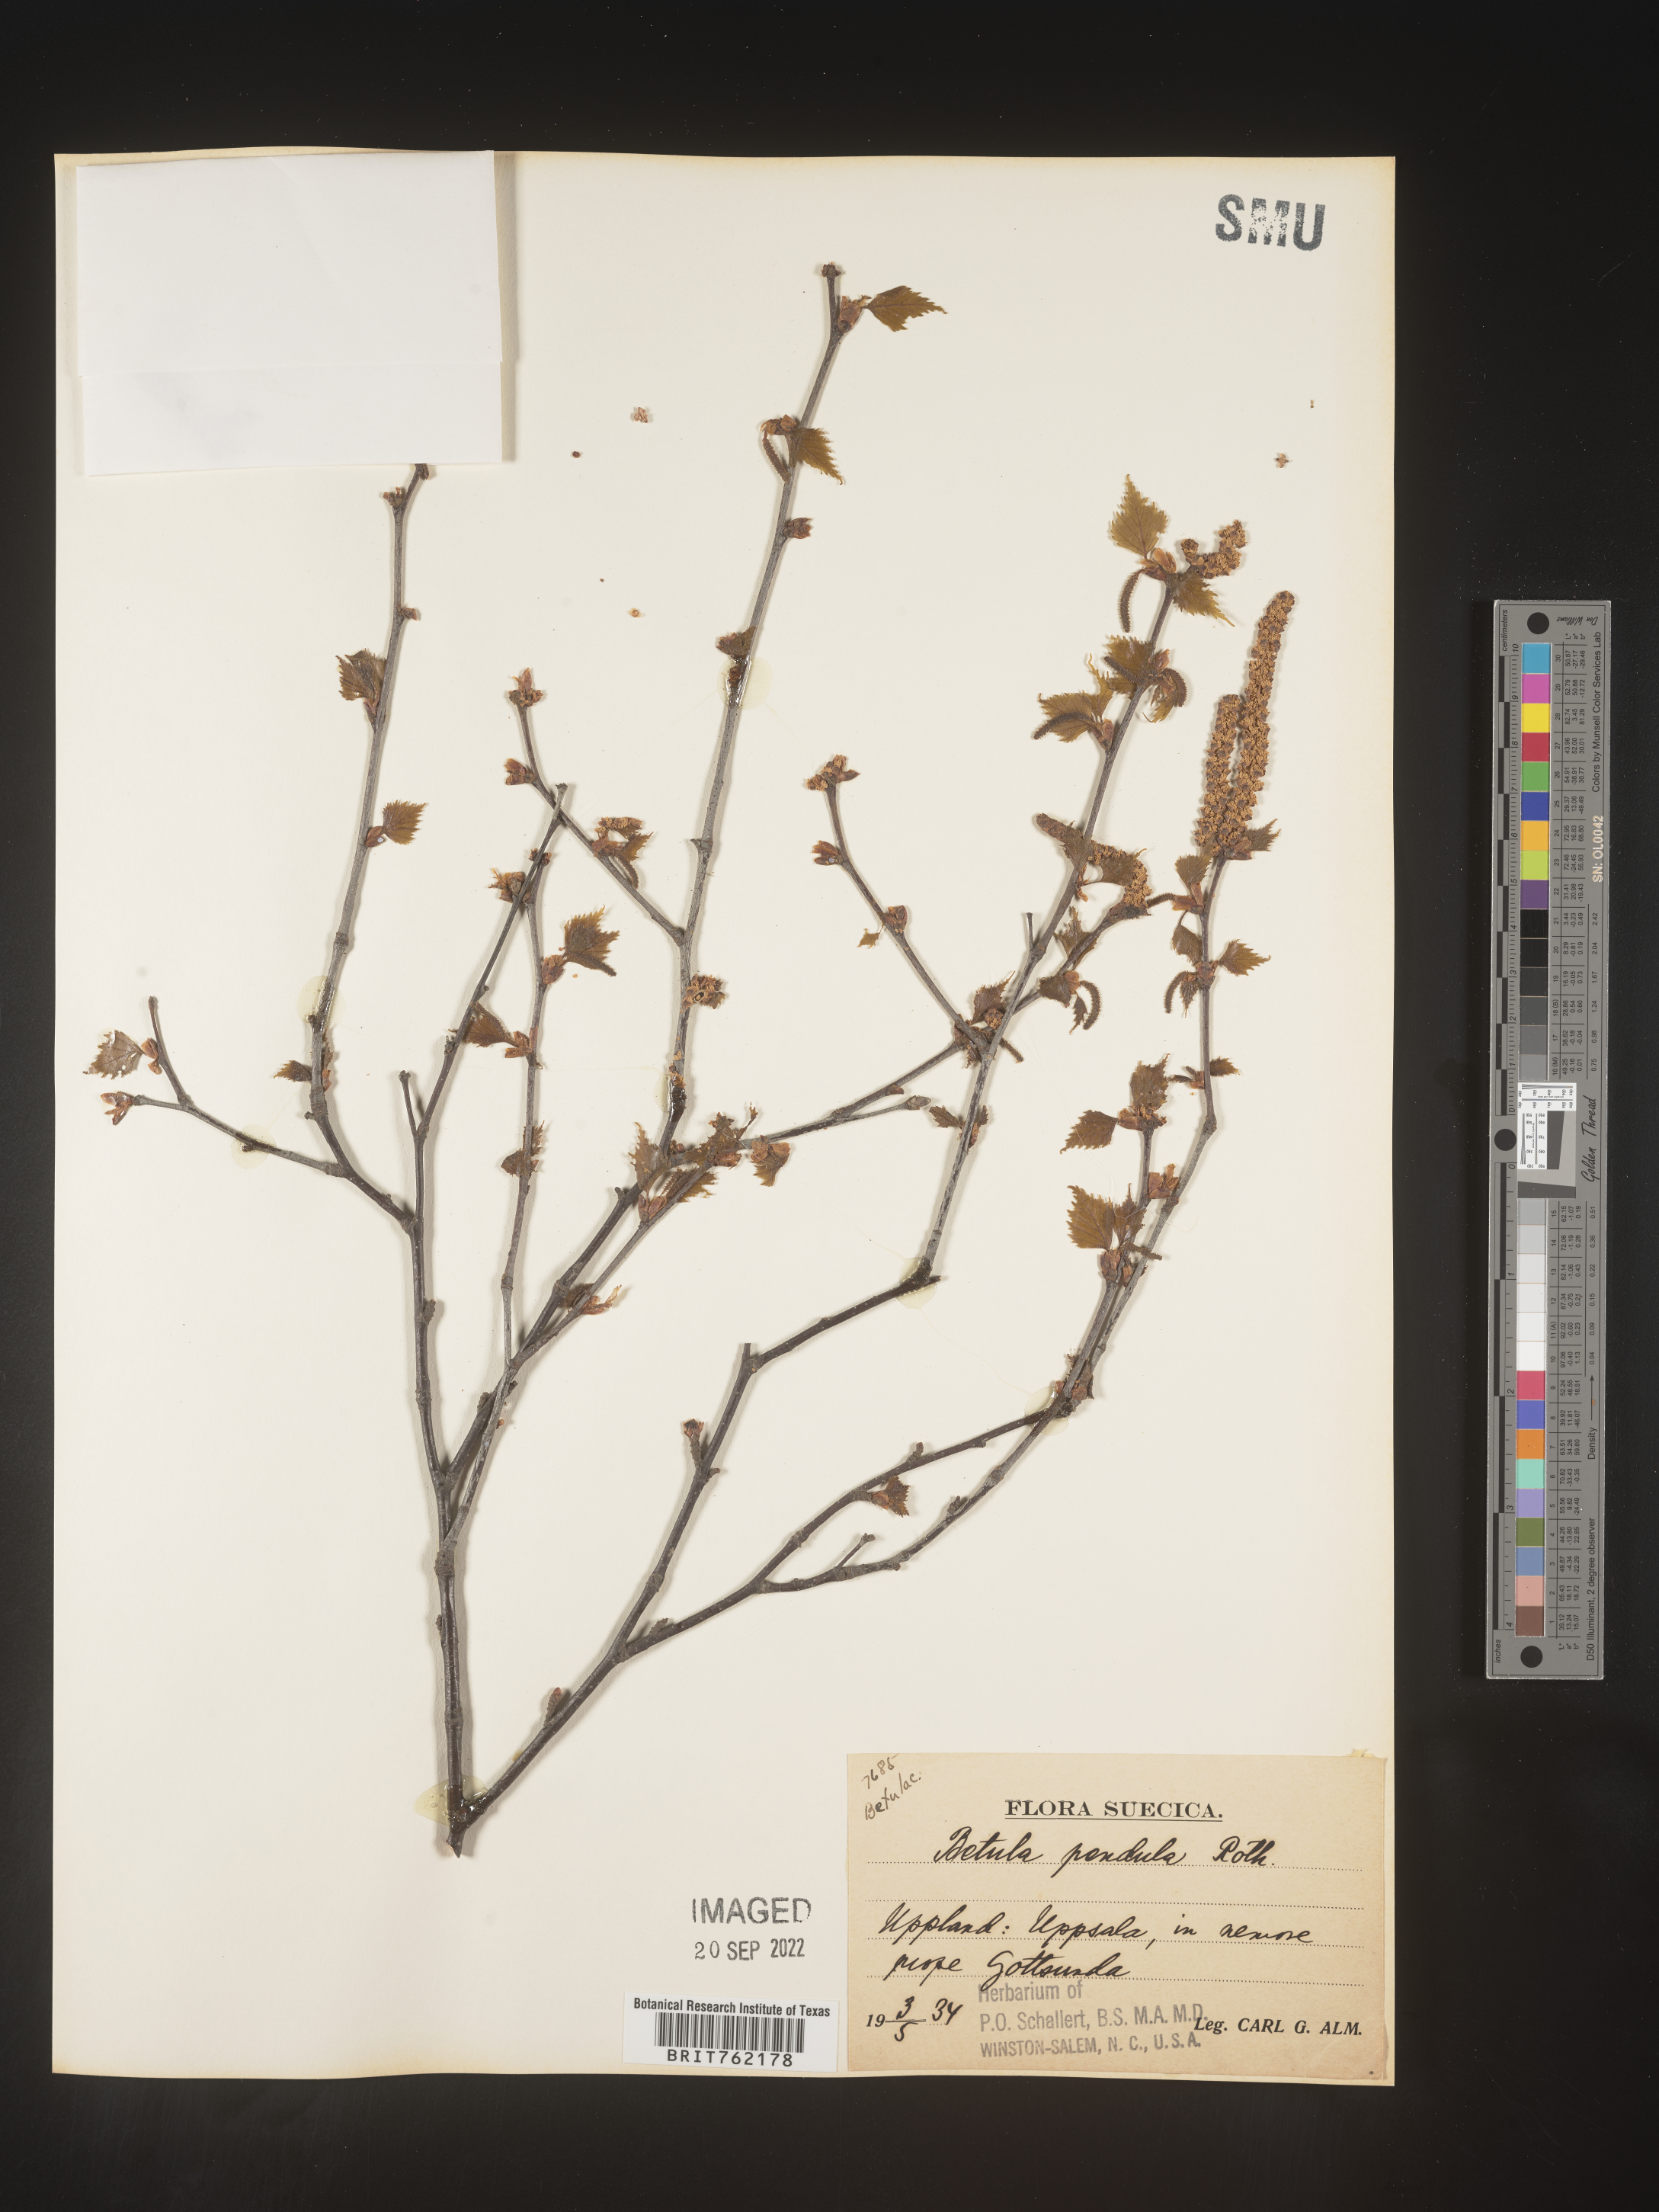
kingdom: Plantae
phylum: Tracheophyta
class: Magnoliopsida
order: Fagales
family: Betulaceae
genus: Betula
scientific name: Betula
